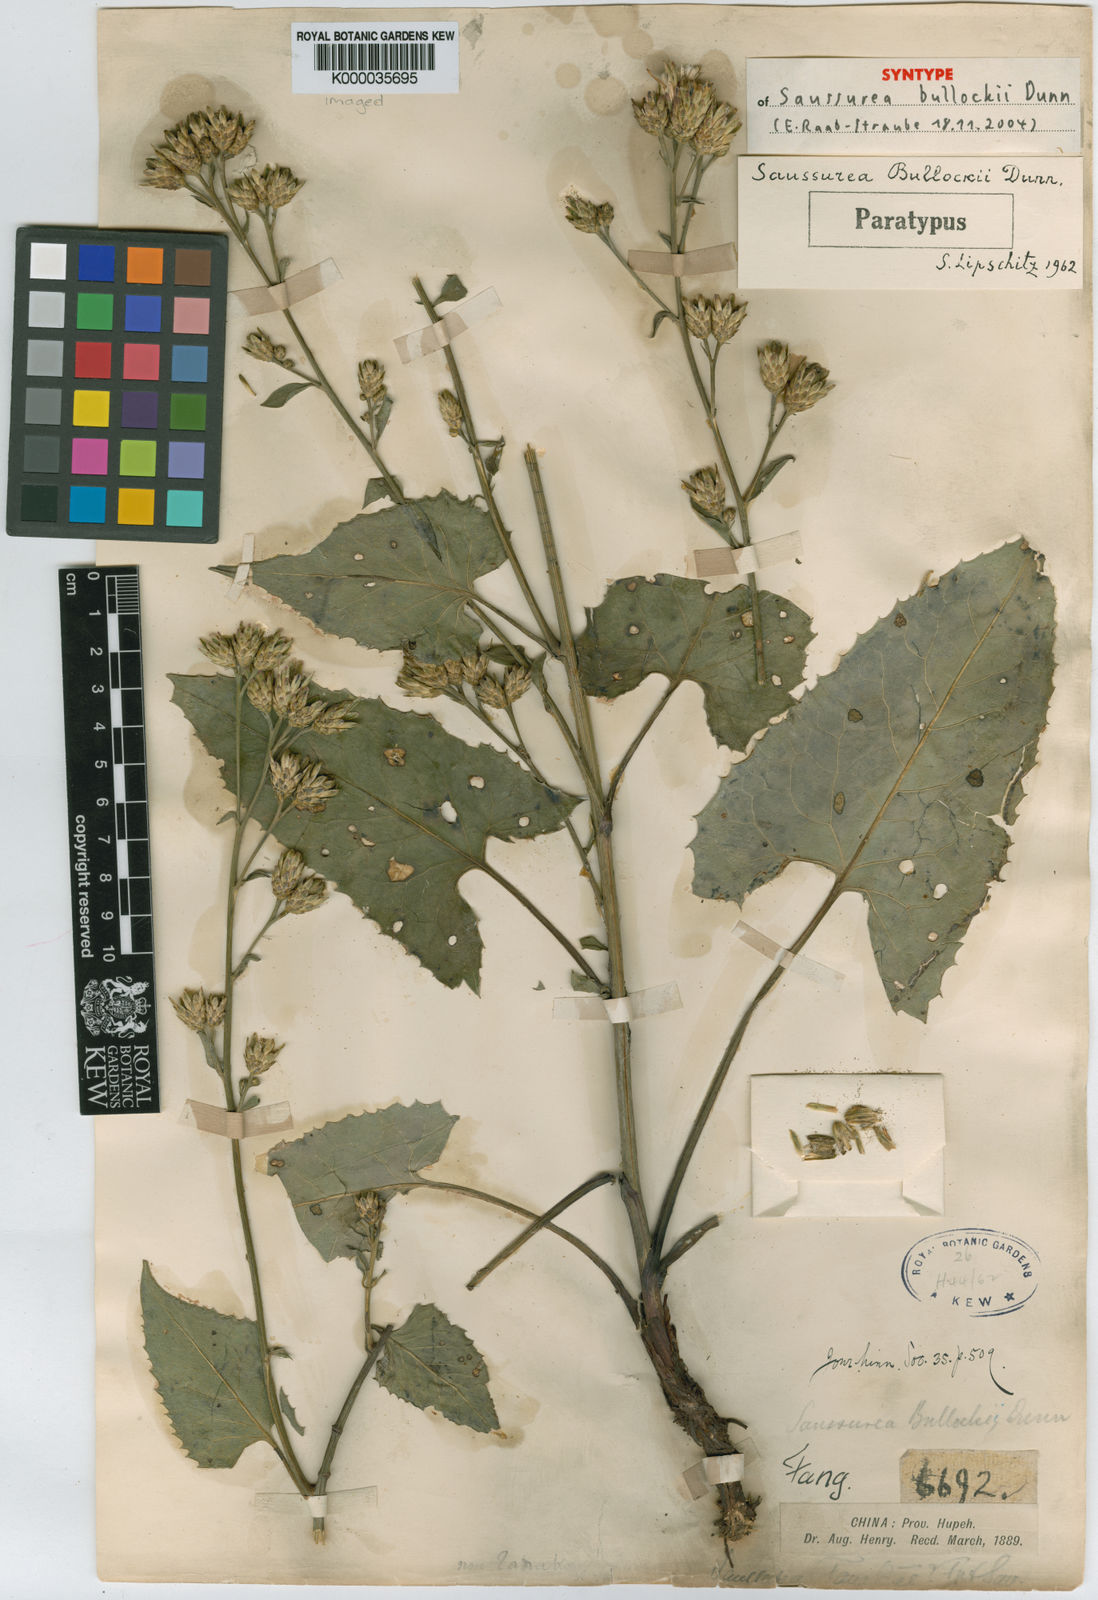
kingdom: Plantae
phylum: Tracheophyta
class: Magnoliopsida
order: Asterales
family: Asteraceae
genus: Saussurea
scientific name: Saussurea bullockii
